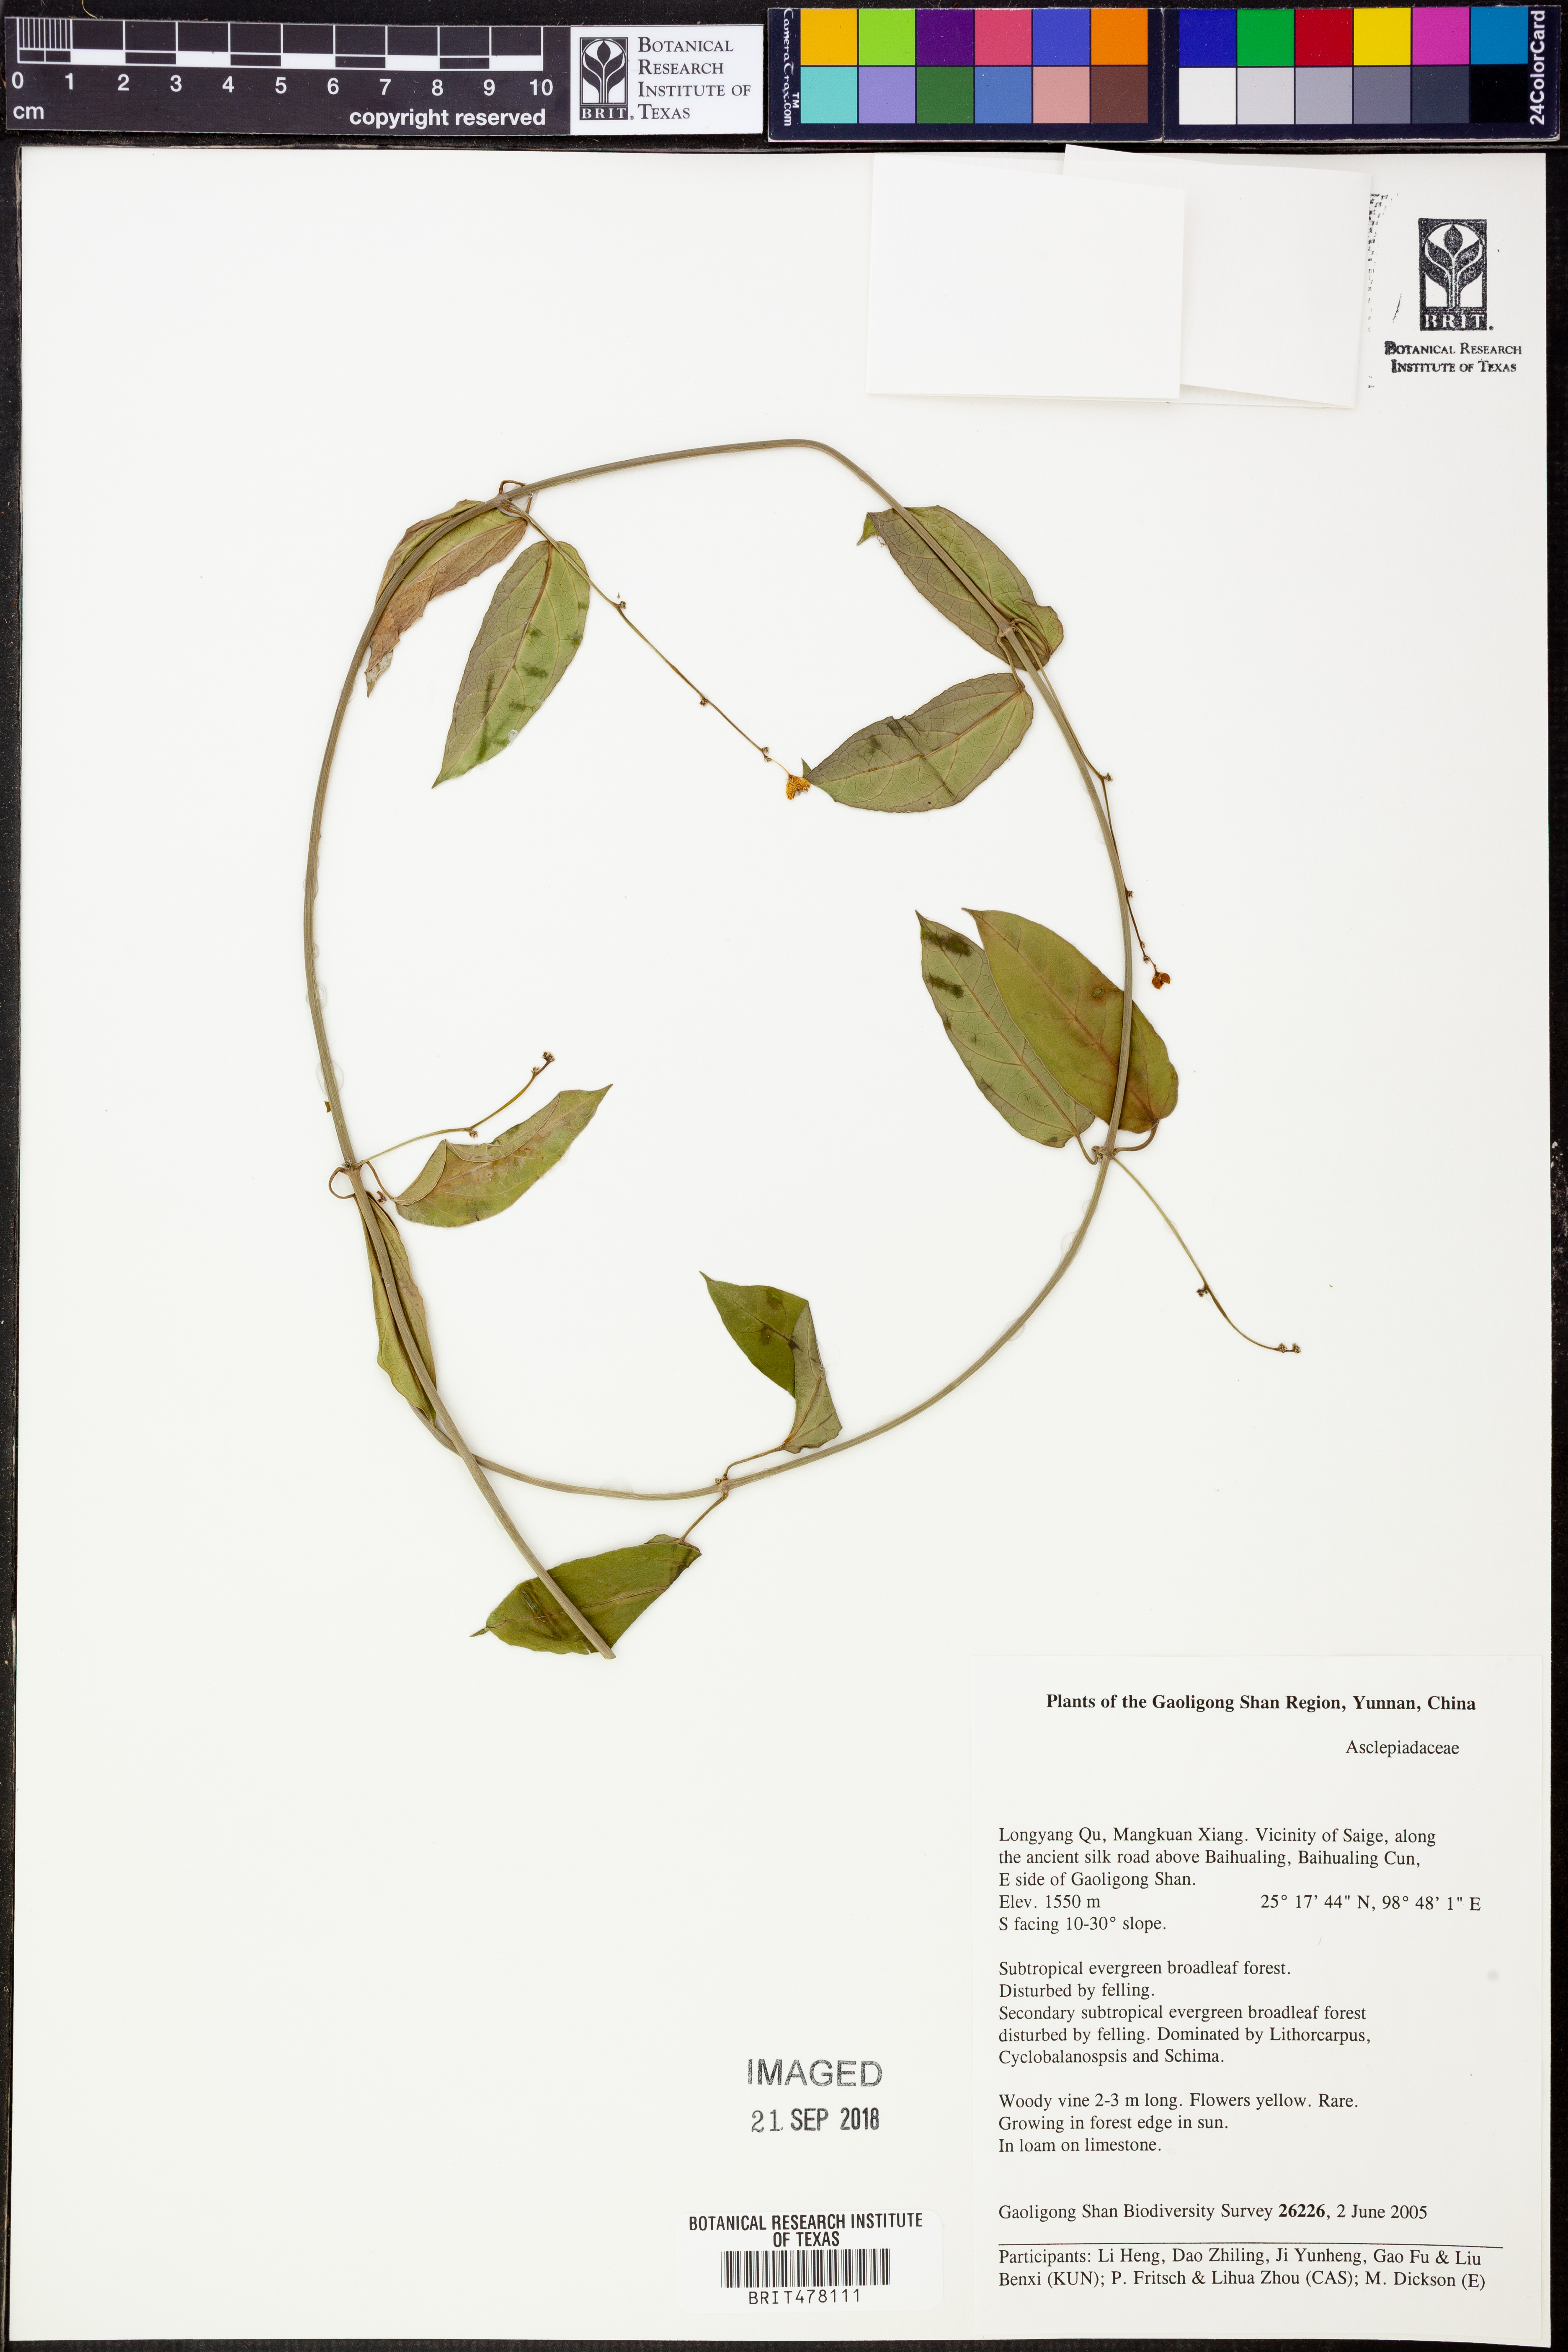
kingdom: Plantae
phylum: Tracheophyta
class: Magnoliopsida
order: Gentianales
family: Apocynaceae
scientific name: Apocynaceae
